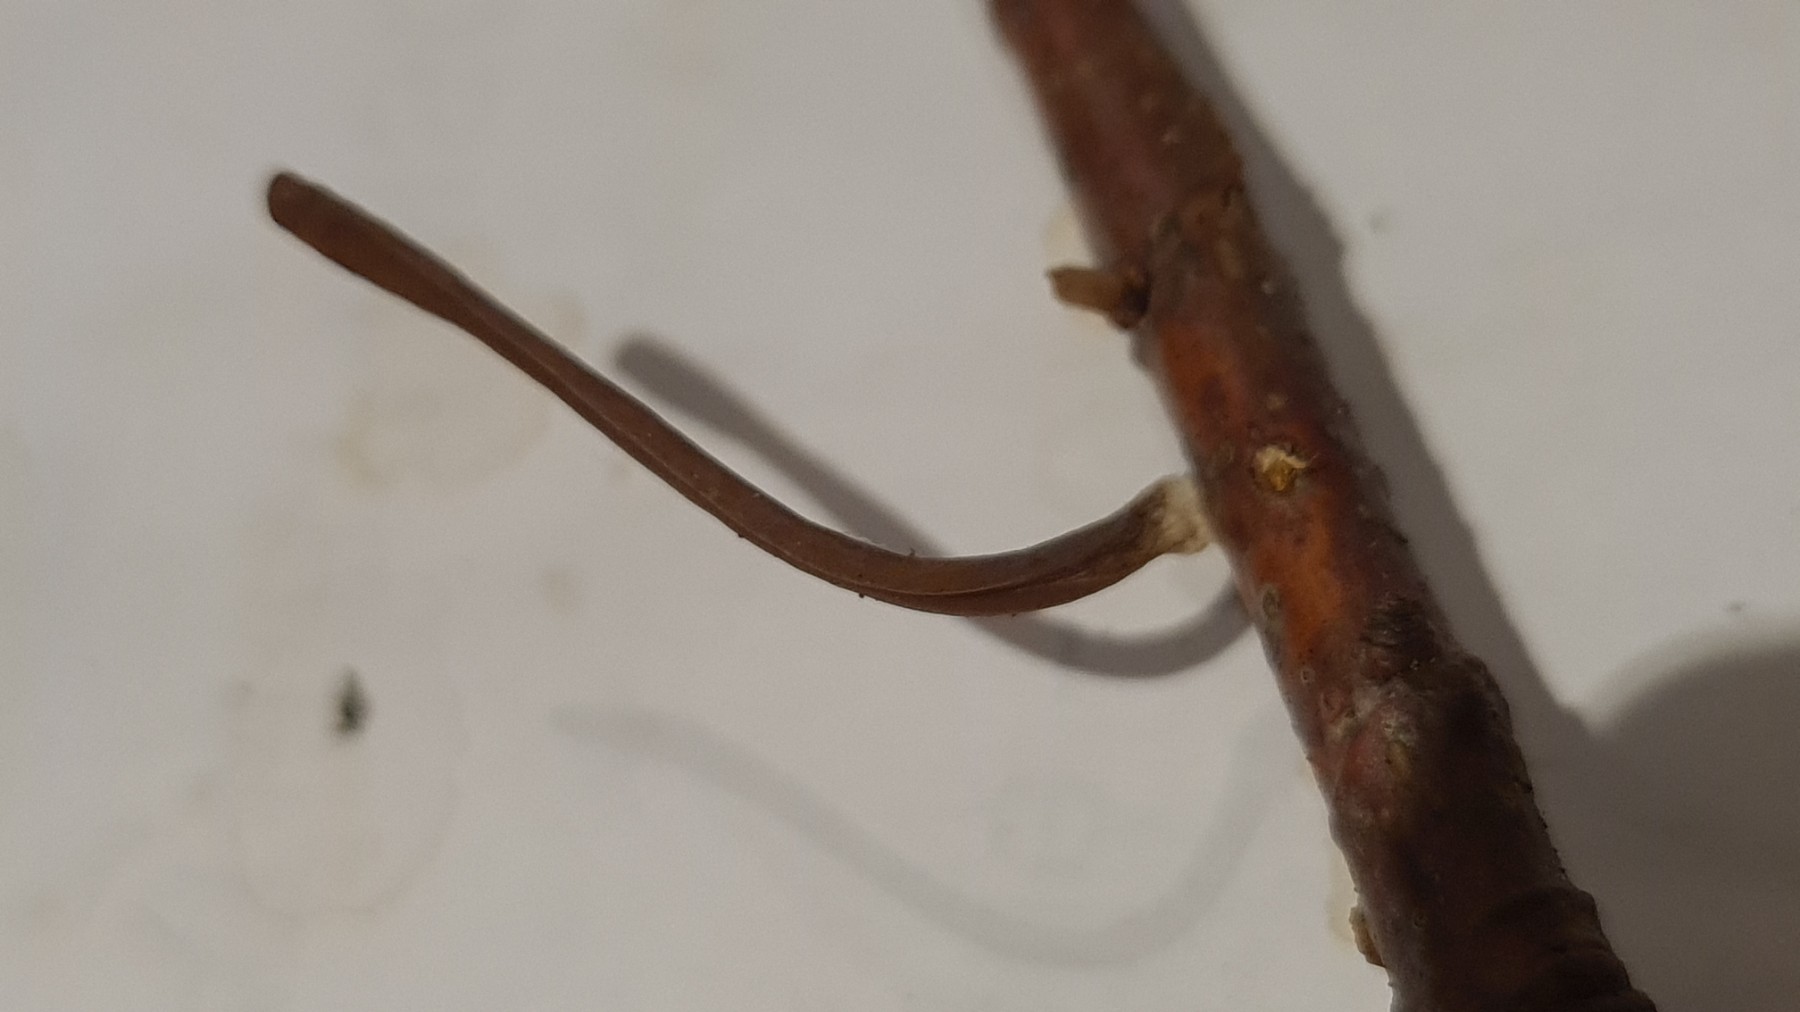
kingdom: Fungi
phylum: Basidiomycota
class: Agaricomycetes
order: Agaricales
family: Typhulaceae
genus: Macrotyphula
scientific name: Macrotyphula
